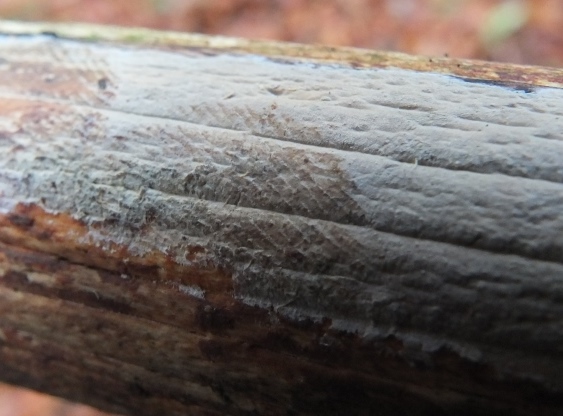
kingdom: Fungi
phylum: Basidiomycota
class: Tremellomycetes
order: Tremellales
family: Exidiaceae
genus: Exidiopsis
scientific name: Exidiopsis effusa
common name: smuk bævrehinde
